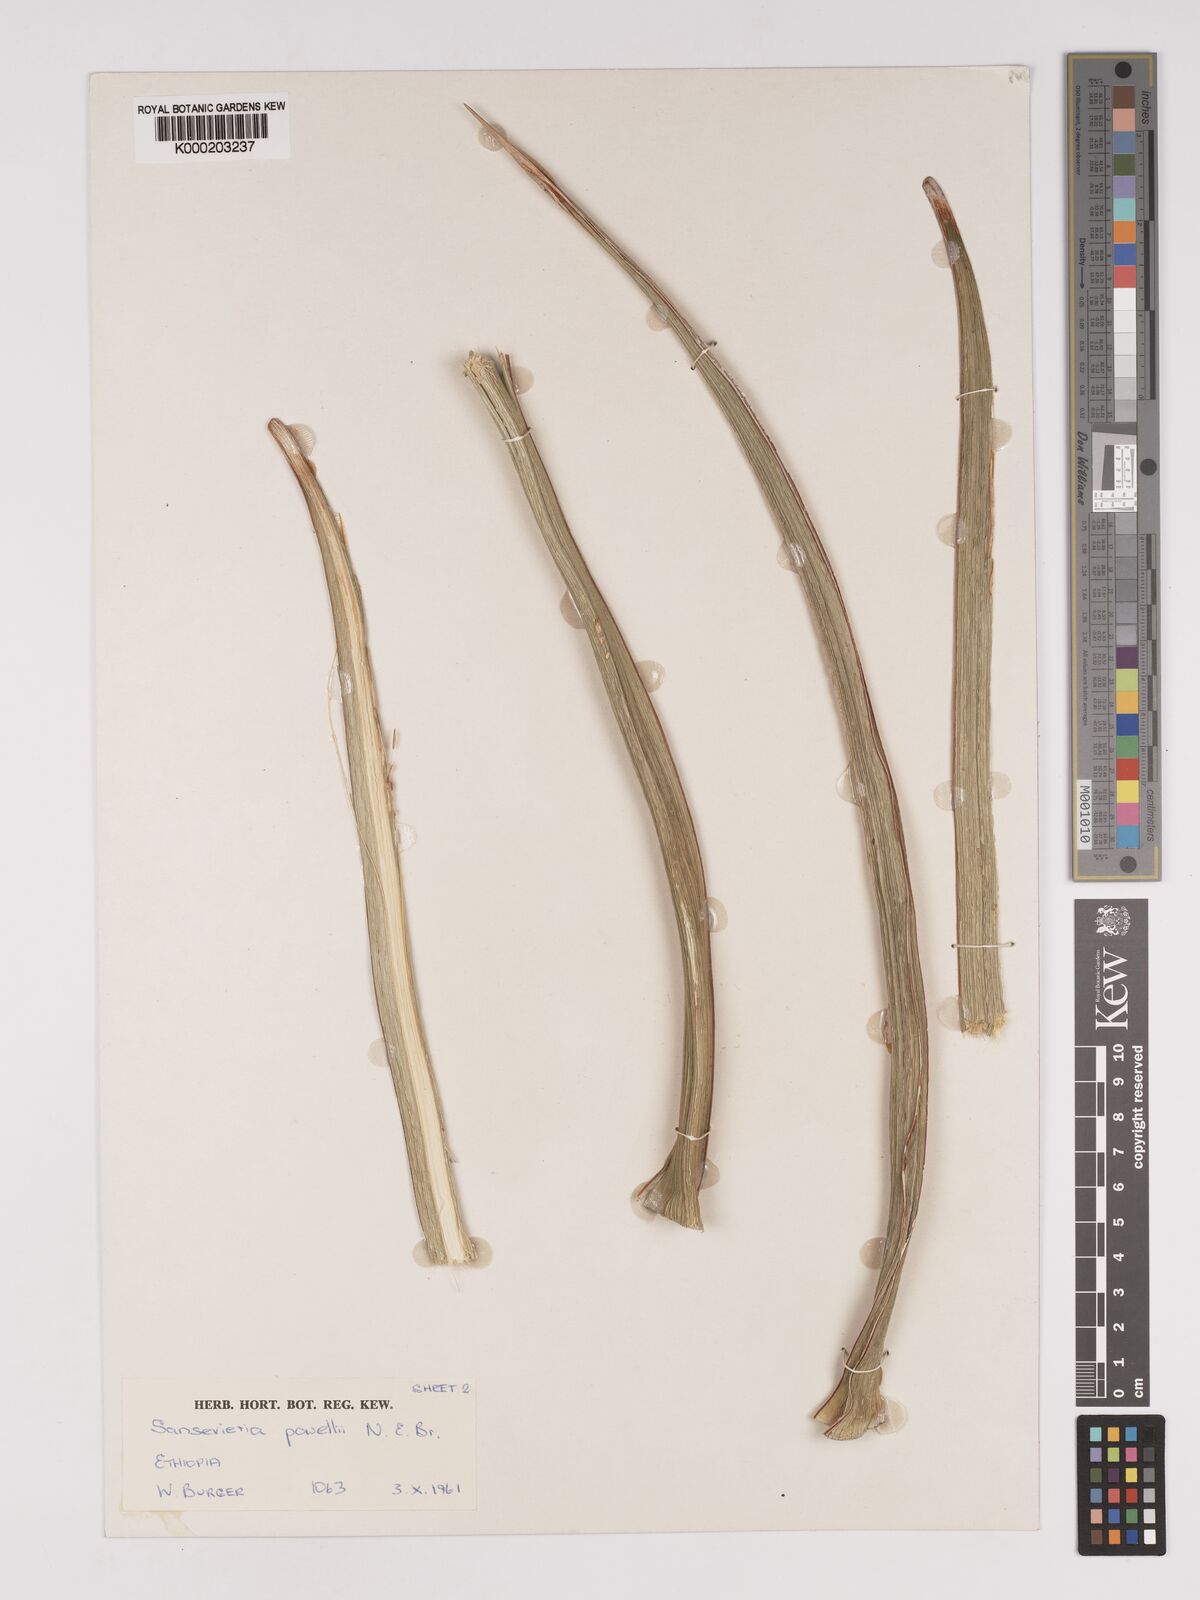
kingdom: Plantae
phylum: Tracheophyta
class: Liliopsida
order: Asparagales
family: Asparagaceae
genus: Dracaena
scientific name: Dracaena powellii
